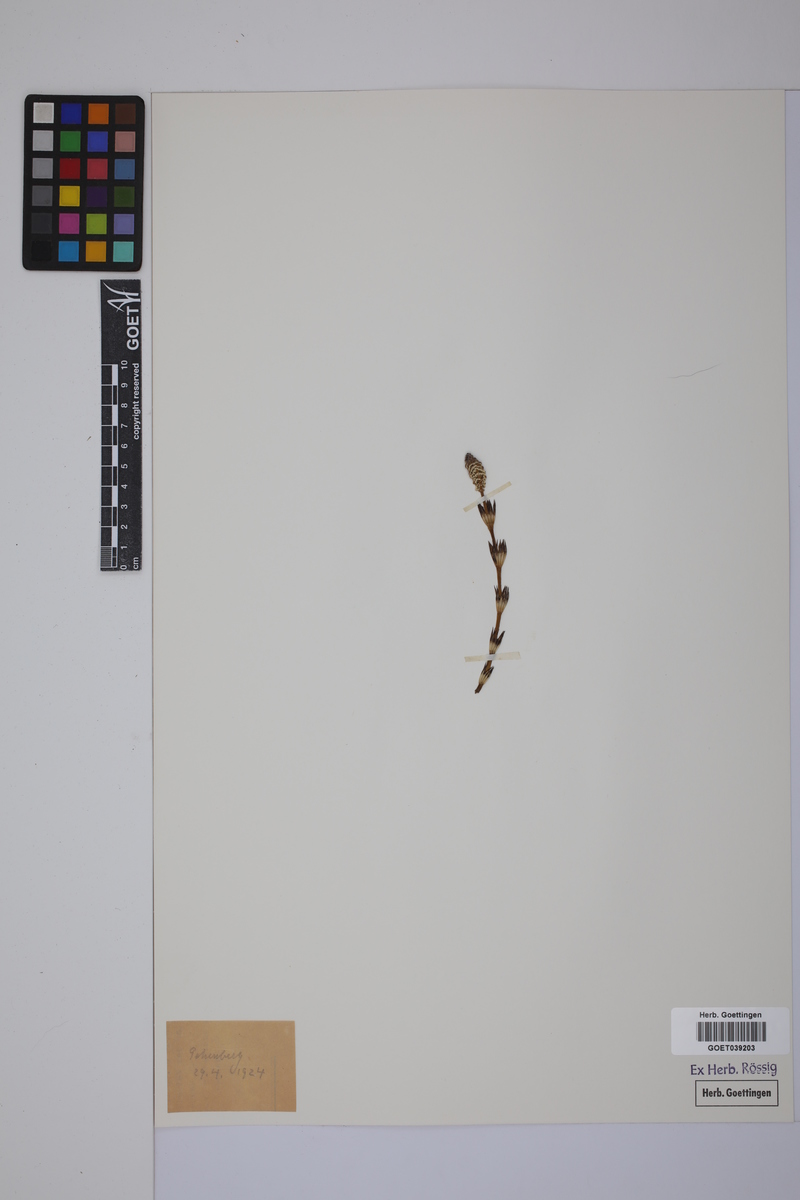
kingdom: Plantae
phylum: Tracheophyta
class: Polypodiopsida
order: Equisetales
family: Equisetaceae
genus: Equisetum
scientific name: Equisetum sylvaticum
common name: Wood horsetail
